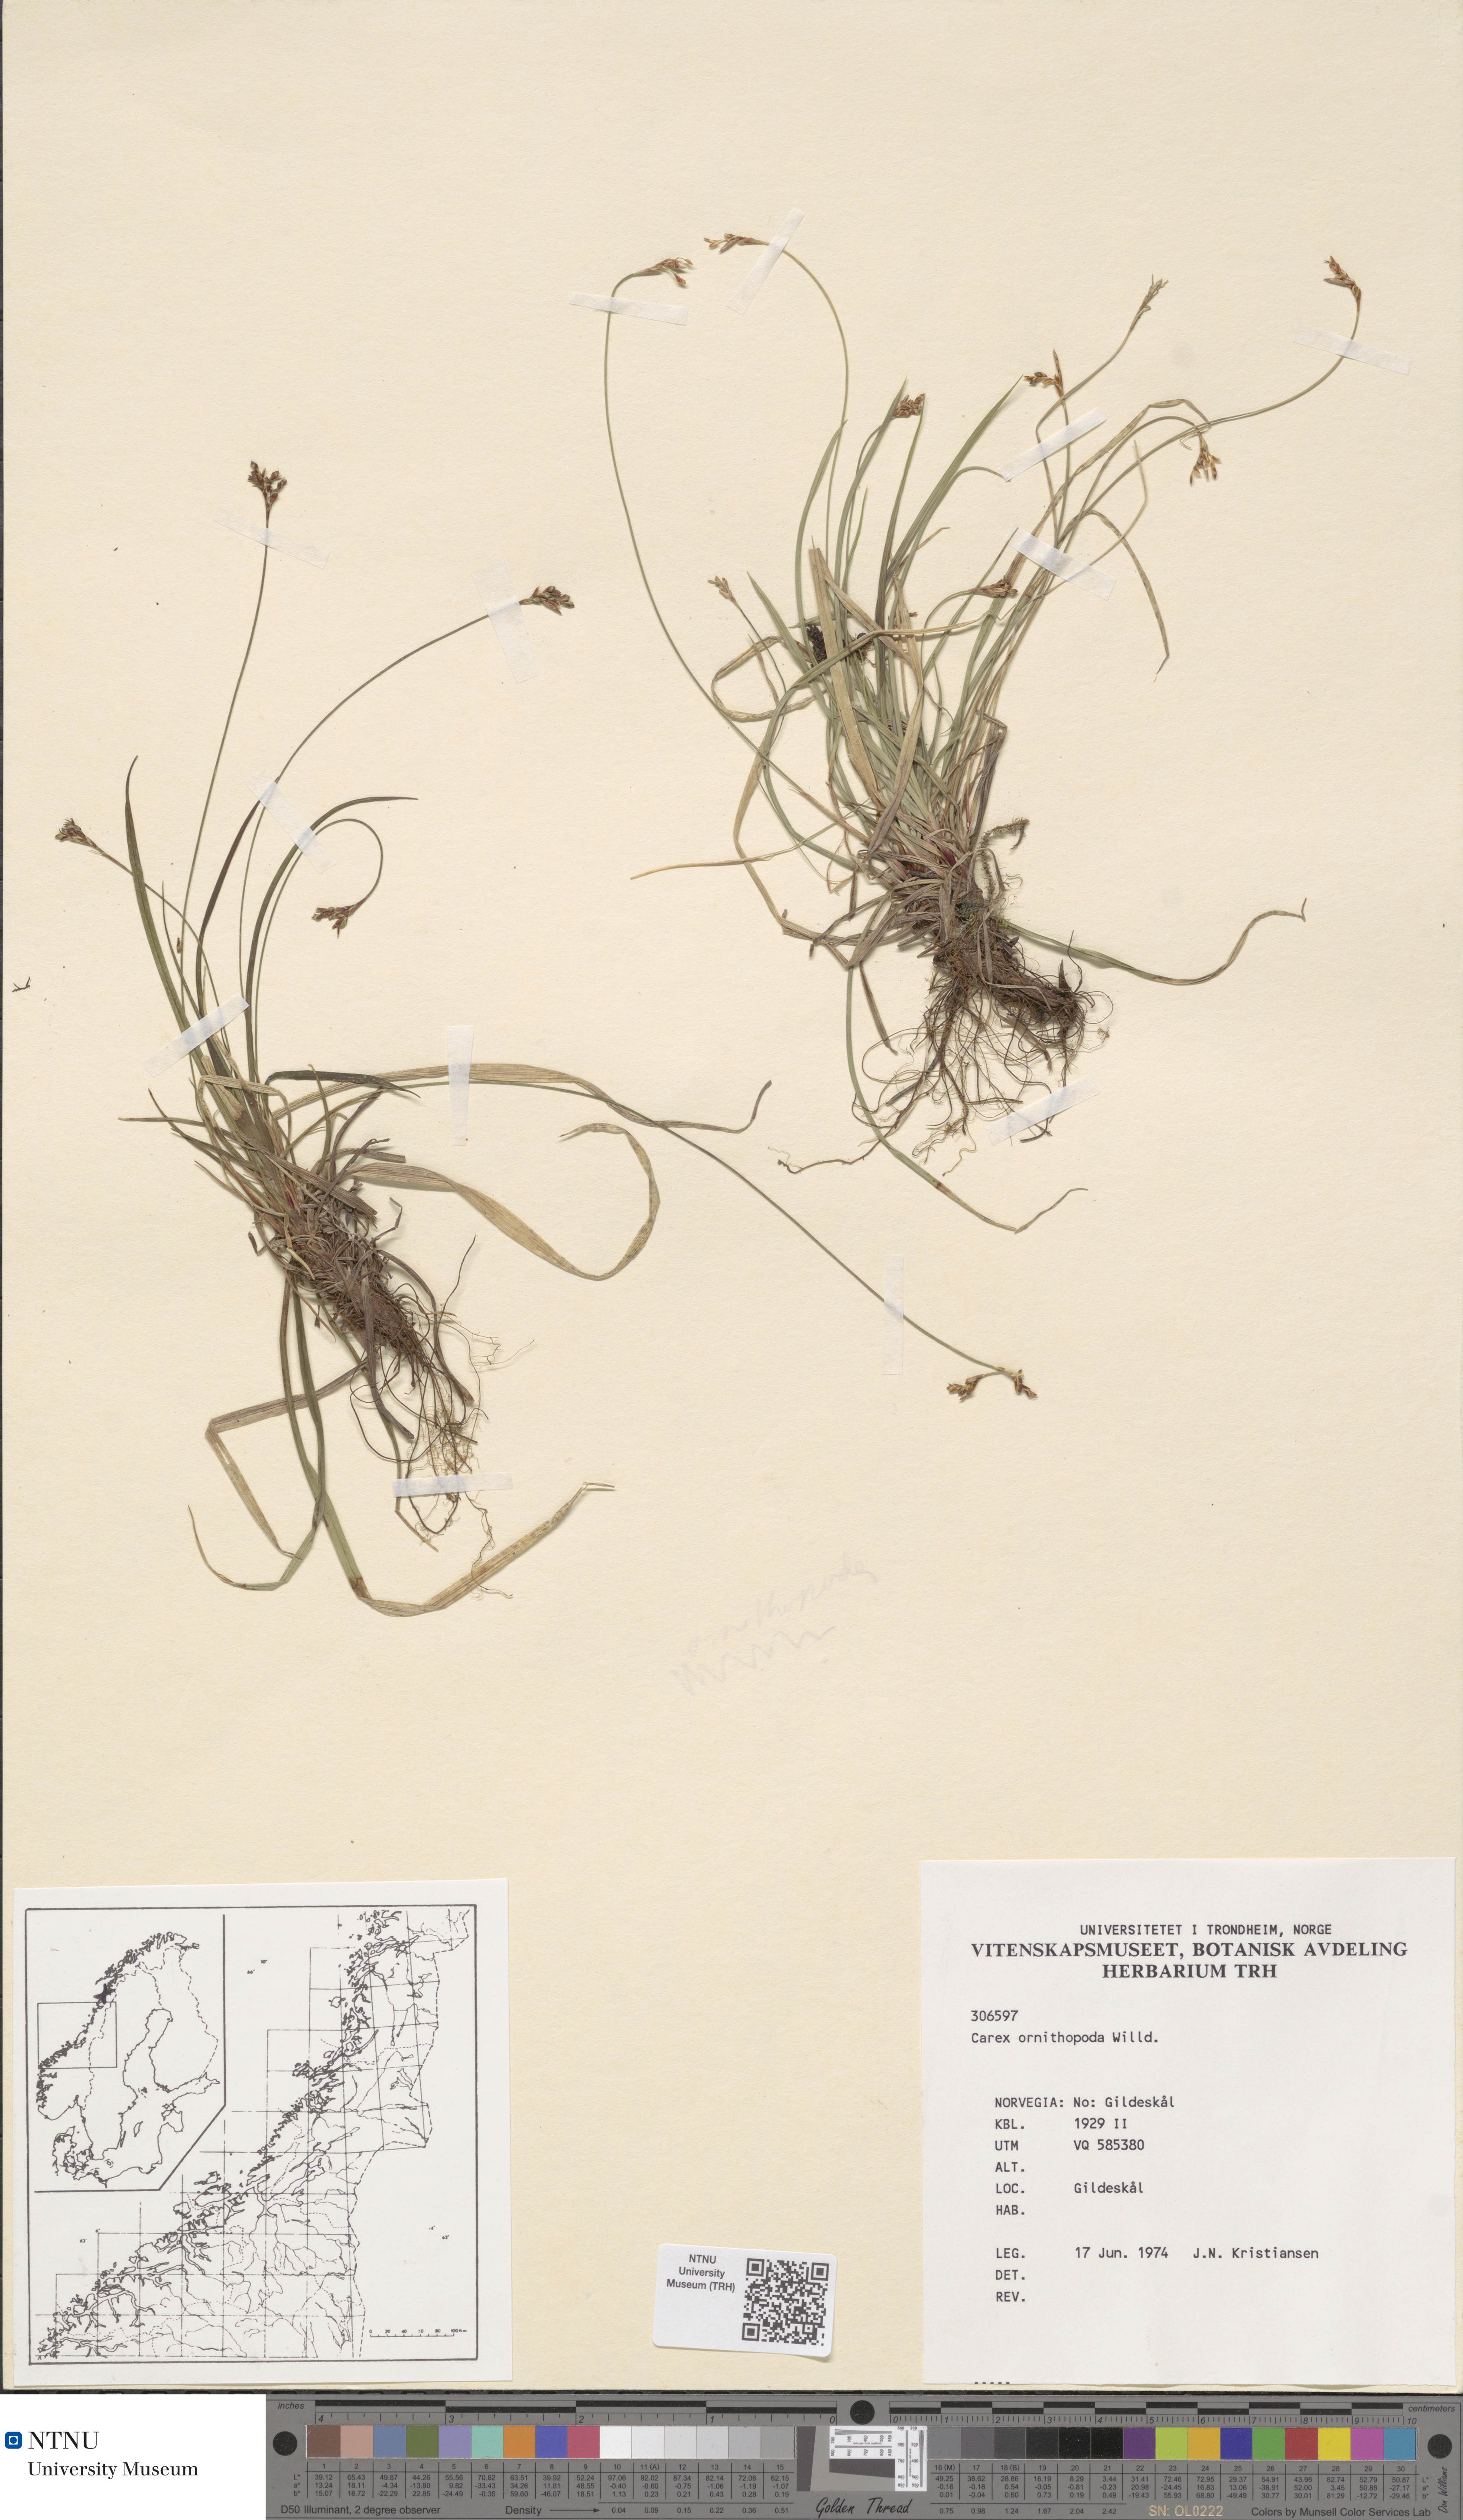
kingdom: Plantae
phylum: Tracheophyta
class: Liliopsida
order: Poales
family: Cyperaceae
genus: Carex
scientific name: Carex ornithopoda
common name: Bird's-foot sedge
